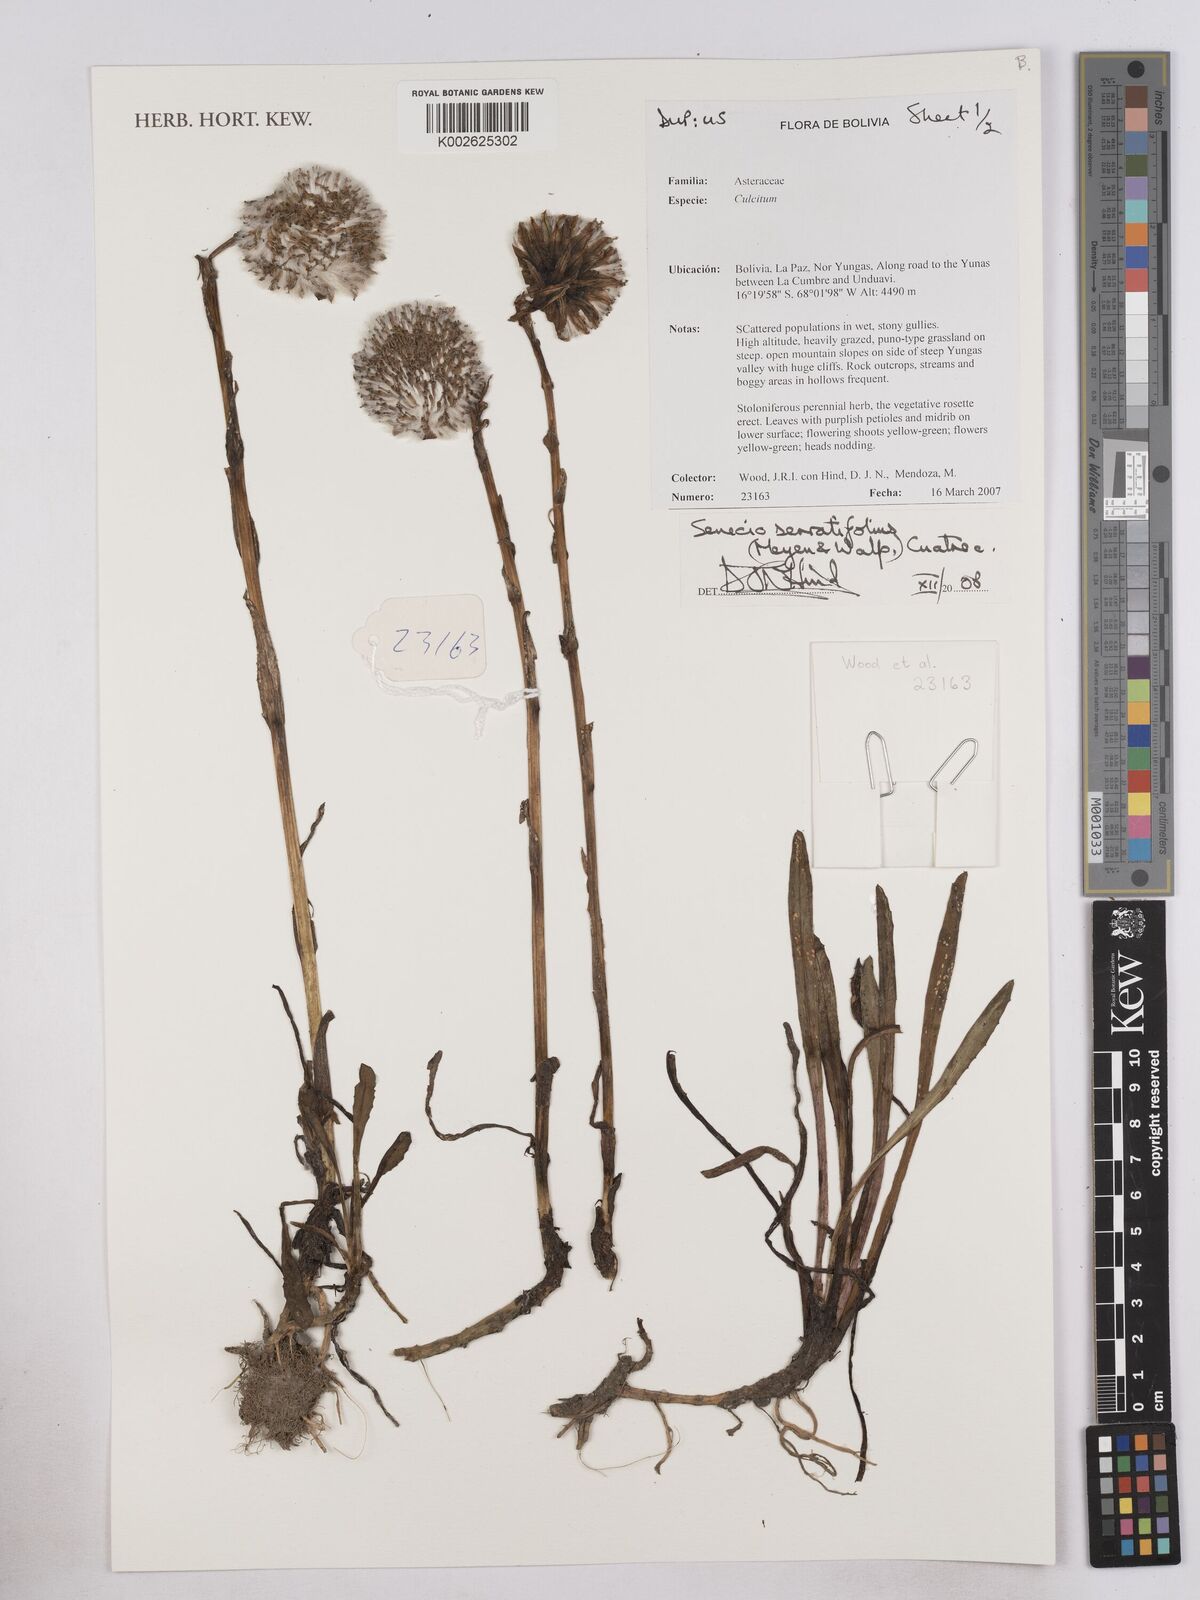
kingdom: Plantae
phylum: Tracheophyta
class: Magnoliopsida
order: Asterales
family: Asteraceae
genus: Senecio
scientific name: Senecio serratifolius
